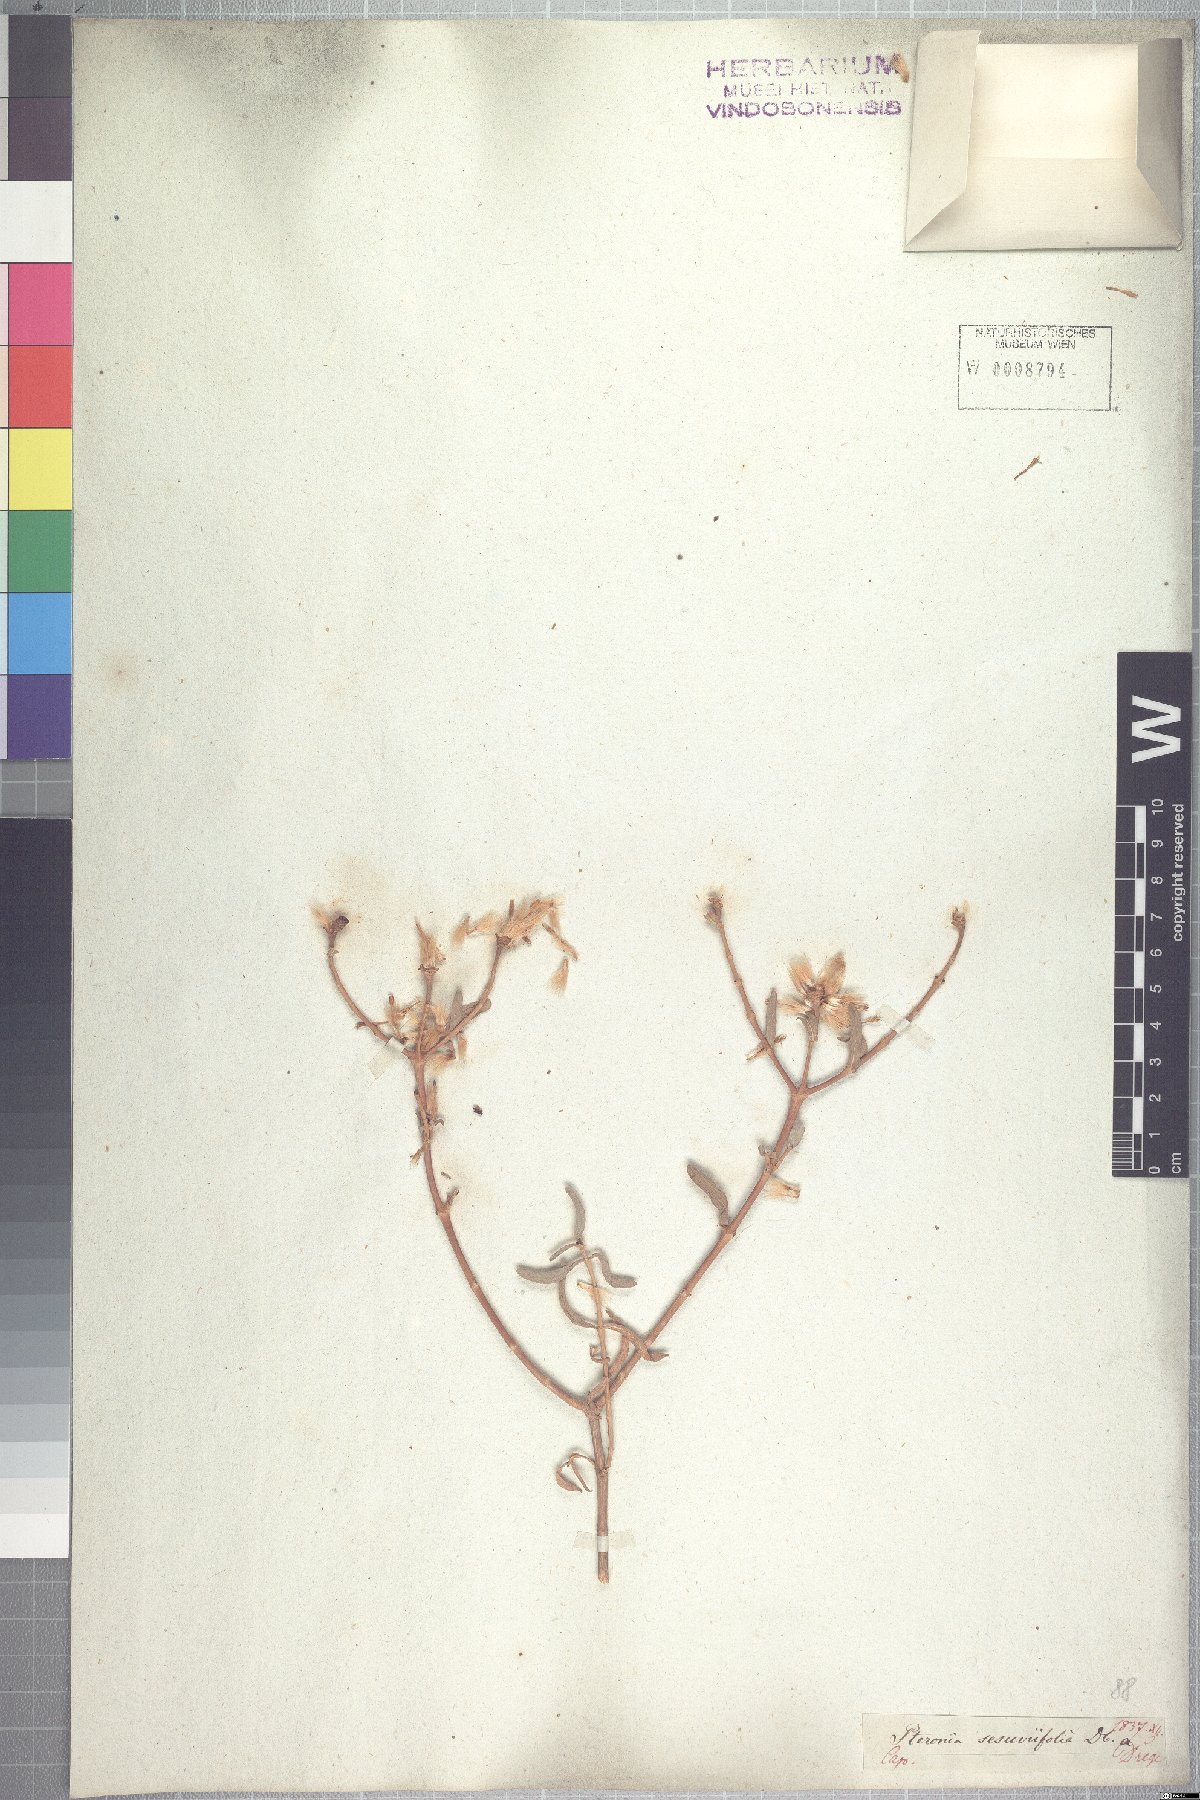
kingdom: Plantae
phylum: Tracheophyta
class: Magnoliopsida
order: Asterales
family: Asteraceae
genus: Pteronia
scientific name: Pteronia glabrata
